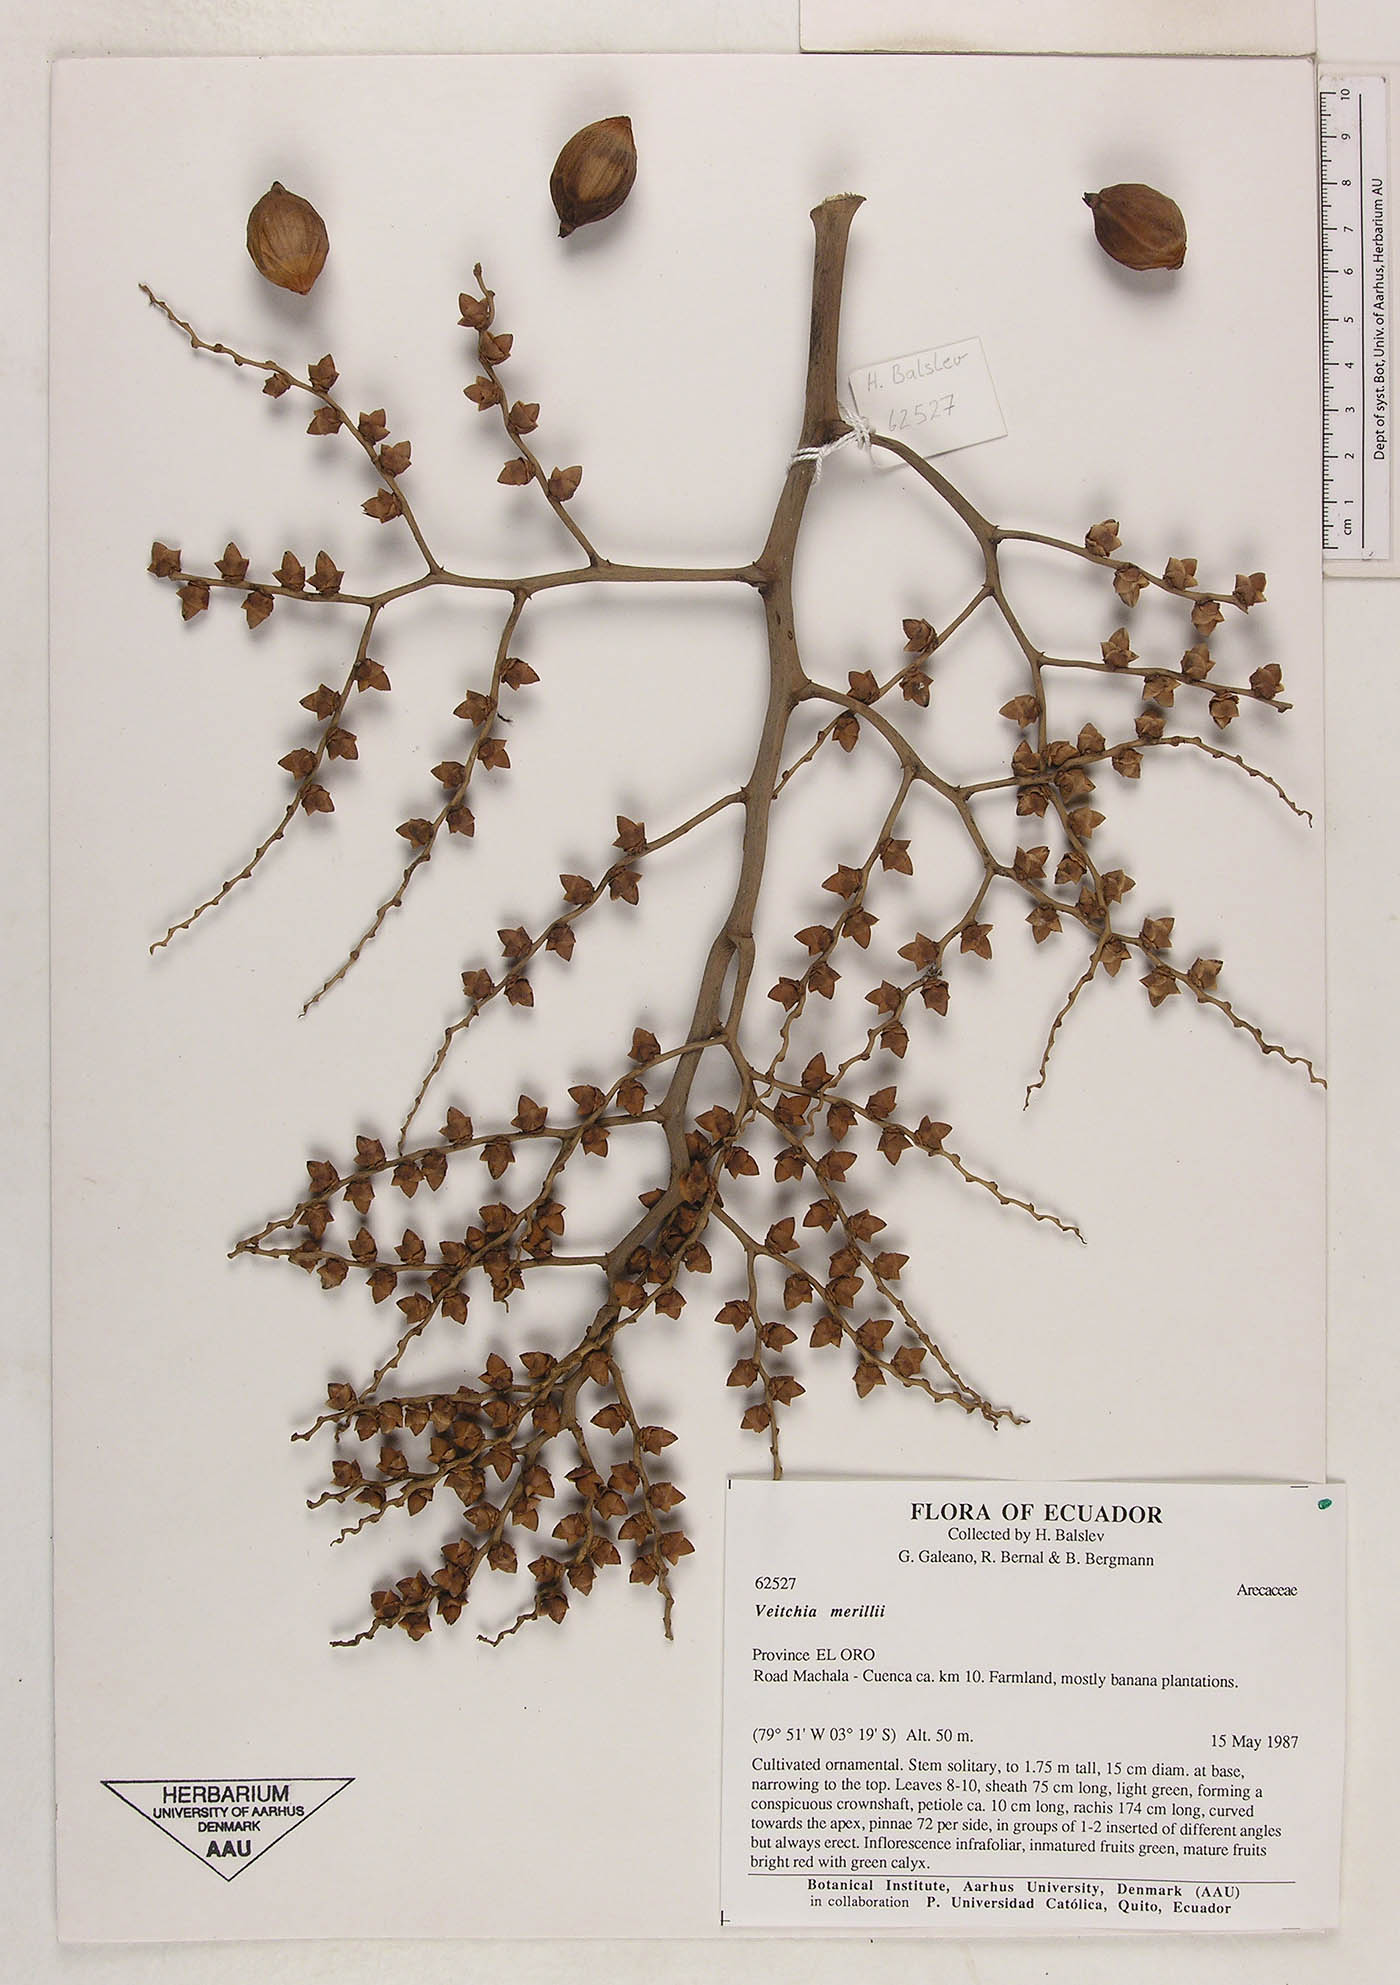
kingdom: Plantae
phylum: Tracheophyta
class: Liliopsida
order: Arecales
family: Arecaceae
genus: Adonidia
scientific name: Adonidia merrillii
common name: Manila palm
